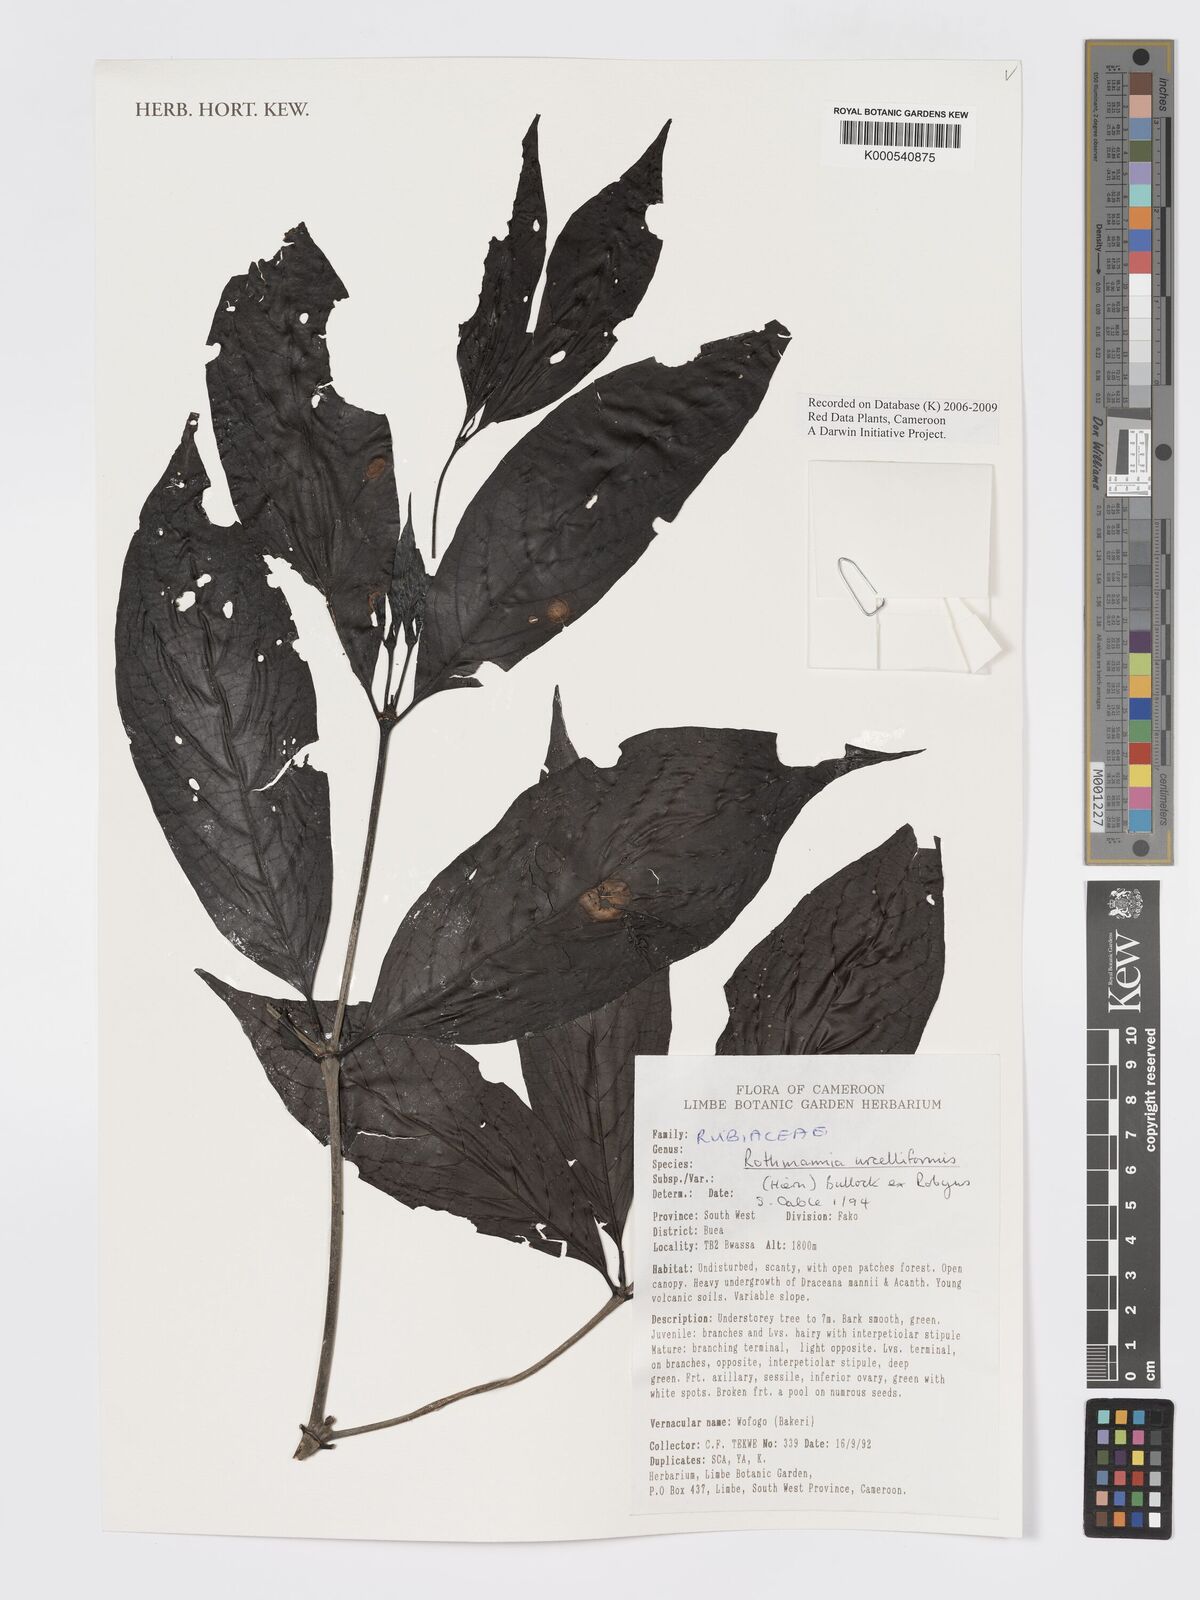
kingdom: Plantae
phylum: Tracheophyta
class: Magnoliopsida
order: Gentianales
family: Rubiaceae
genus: Rothmannia
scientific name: Rothmannia urcelliformis
